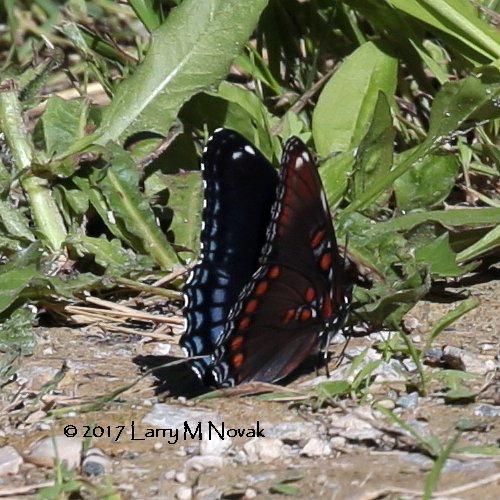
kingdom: Animalia
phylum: Arthropoda
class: Insecta
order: Lepidoptera
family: Nymphalidae
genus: Limenitis
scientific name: Limenitis astyanax
